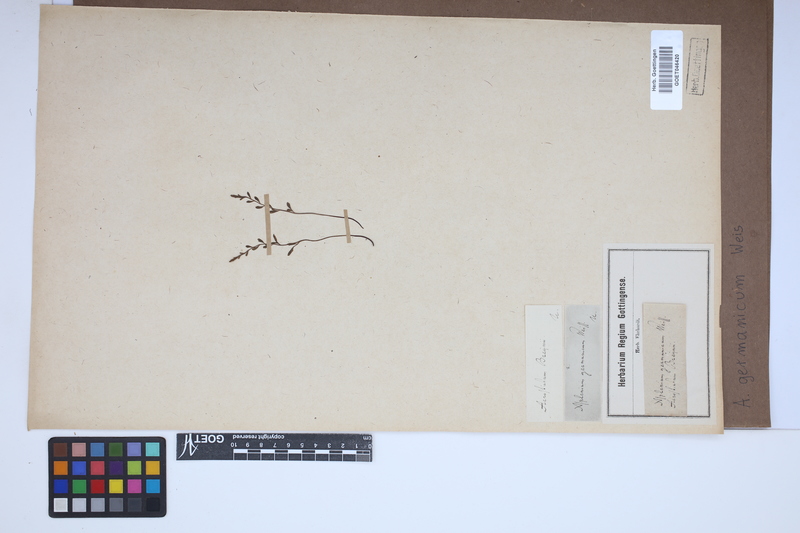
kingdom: Plantae
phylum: Tracheophyta
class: Polypodiopsida
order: Polypodiales
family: Aspleniaceae
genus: Asplenium
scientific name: Asplenium
